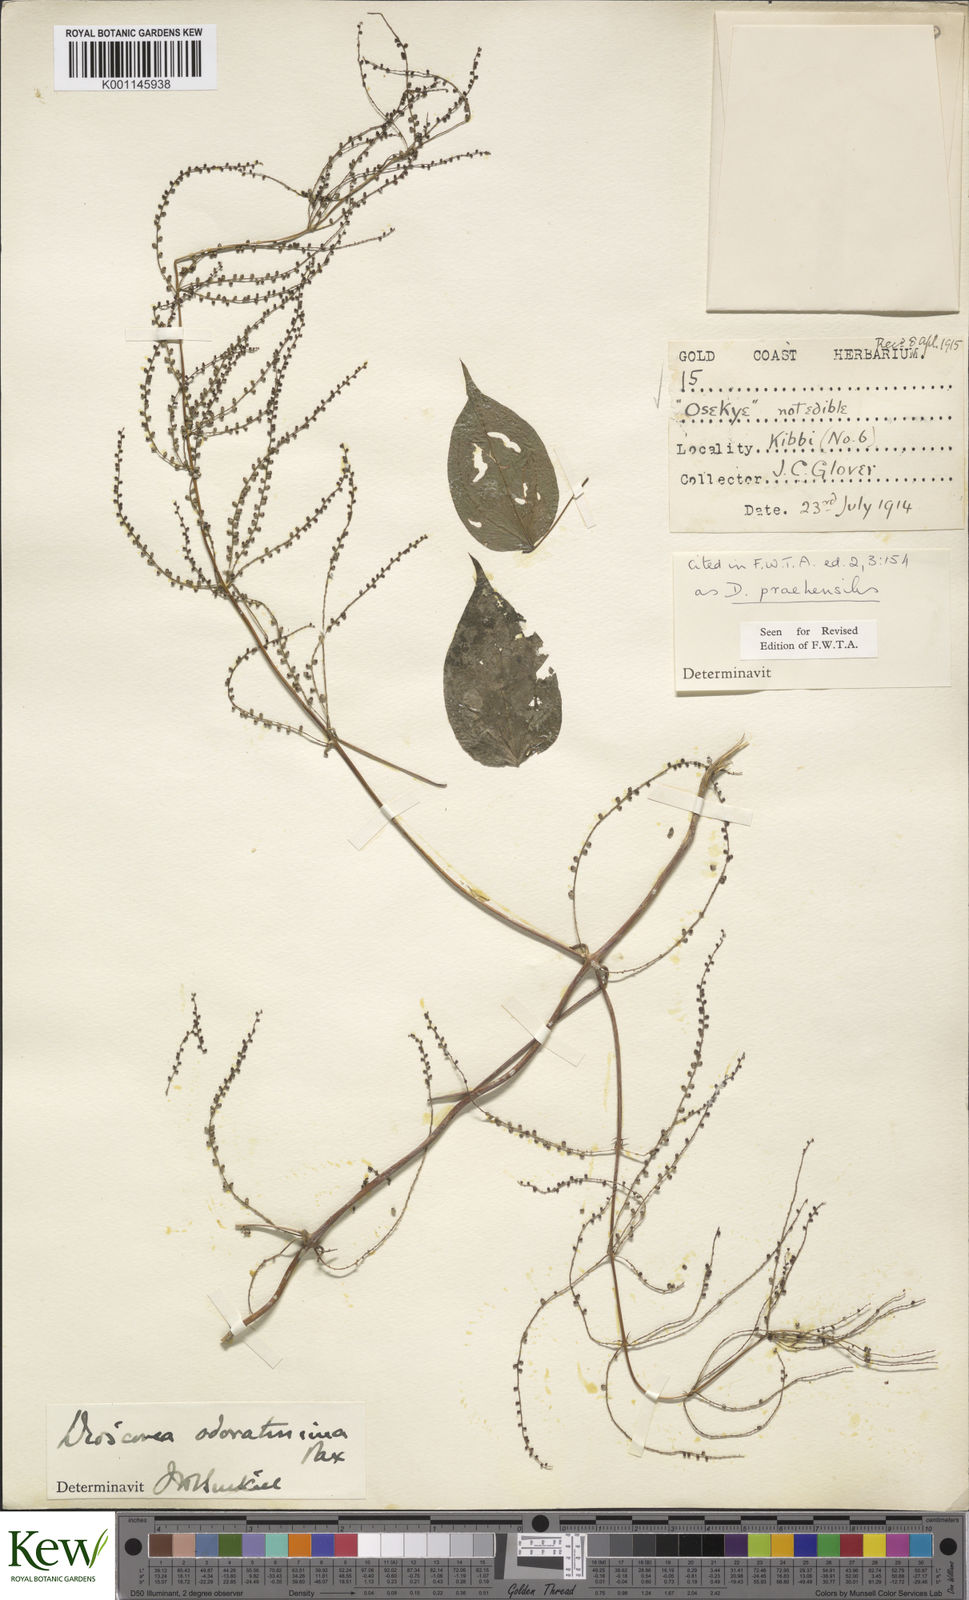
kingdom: Plantae
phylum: Tracheophyta
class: Liliopsida
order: Dioscoreales
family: Dioscoreaceae
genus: Dioscorea
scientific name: Dioscorea praehensilis
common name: Bush yam
